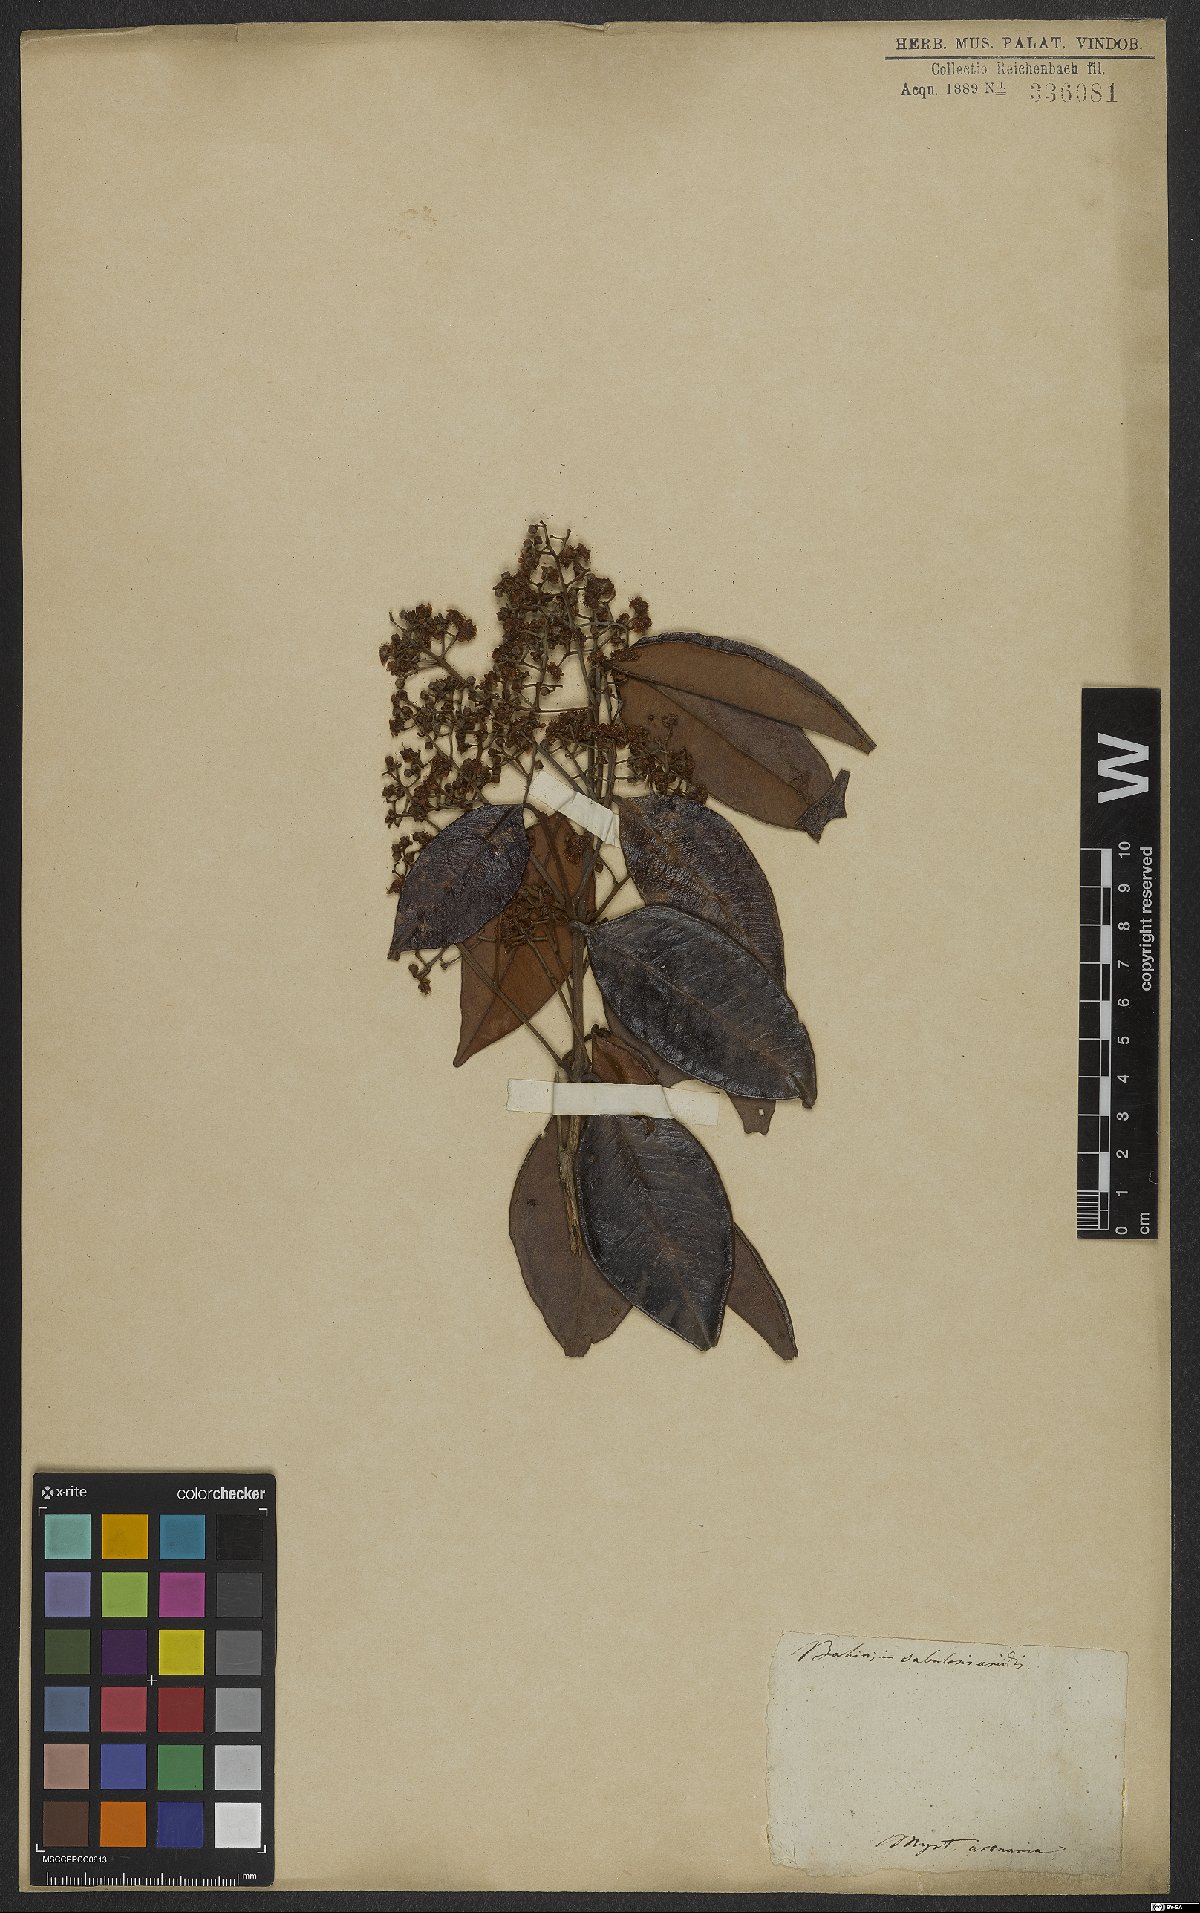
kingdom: Plantae
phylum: Tracheophyta
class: Magnoliopsida
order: Myrtales
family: Myrtaceae
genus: Myrtus
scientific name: Myrtus
